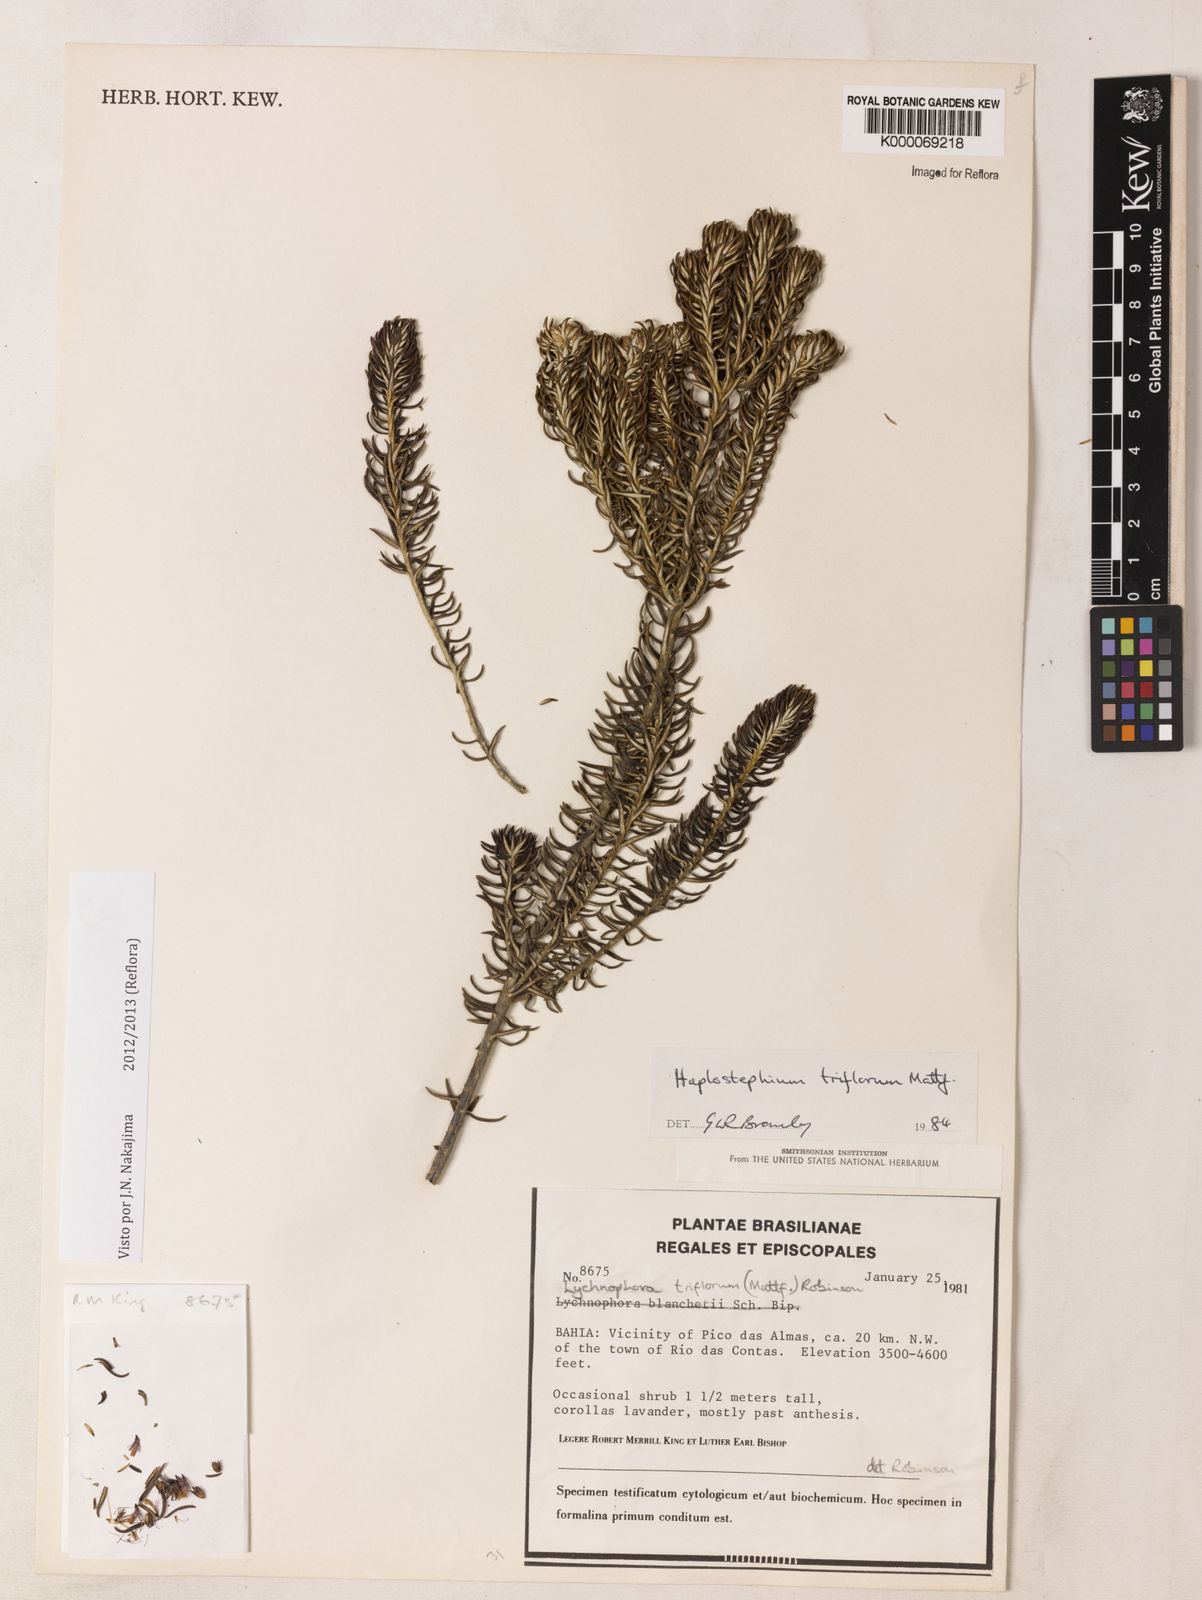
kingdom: Plantae
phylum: Tracheophyta
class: Magnoliopsida
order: Asterales
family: Asteraceae
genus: Lychnophorella
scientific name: Lychnophorella triflora
